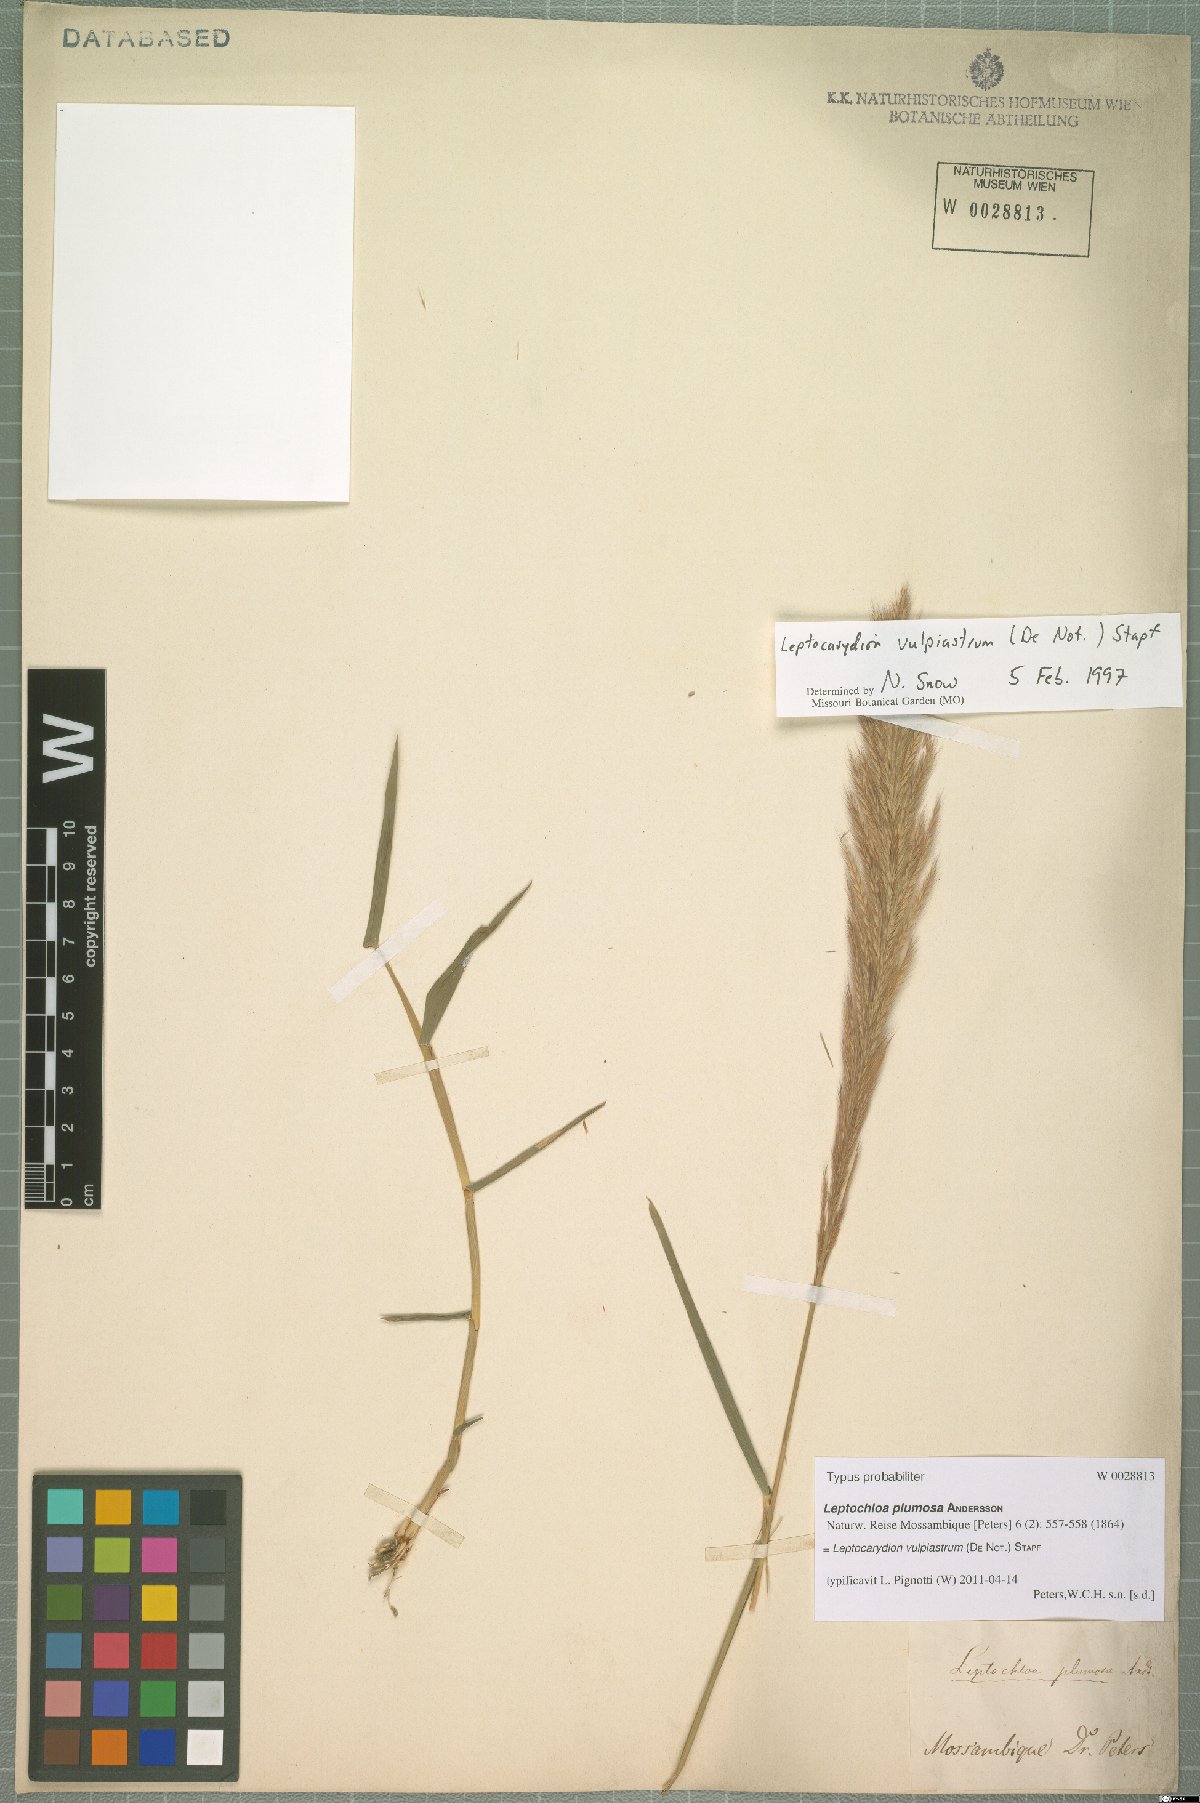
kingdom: Plantae
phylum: Tracheophyta
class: Liliopsida
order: Poales
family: Poaceae
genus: Leptocarydion
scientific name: Leptocarydion vulpiastrum
